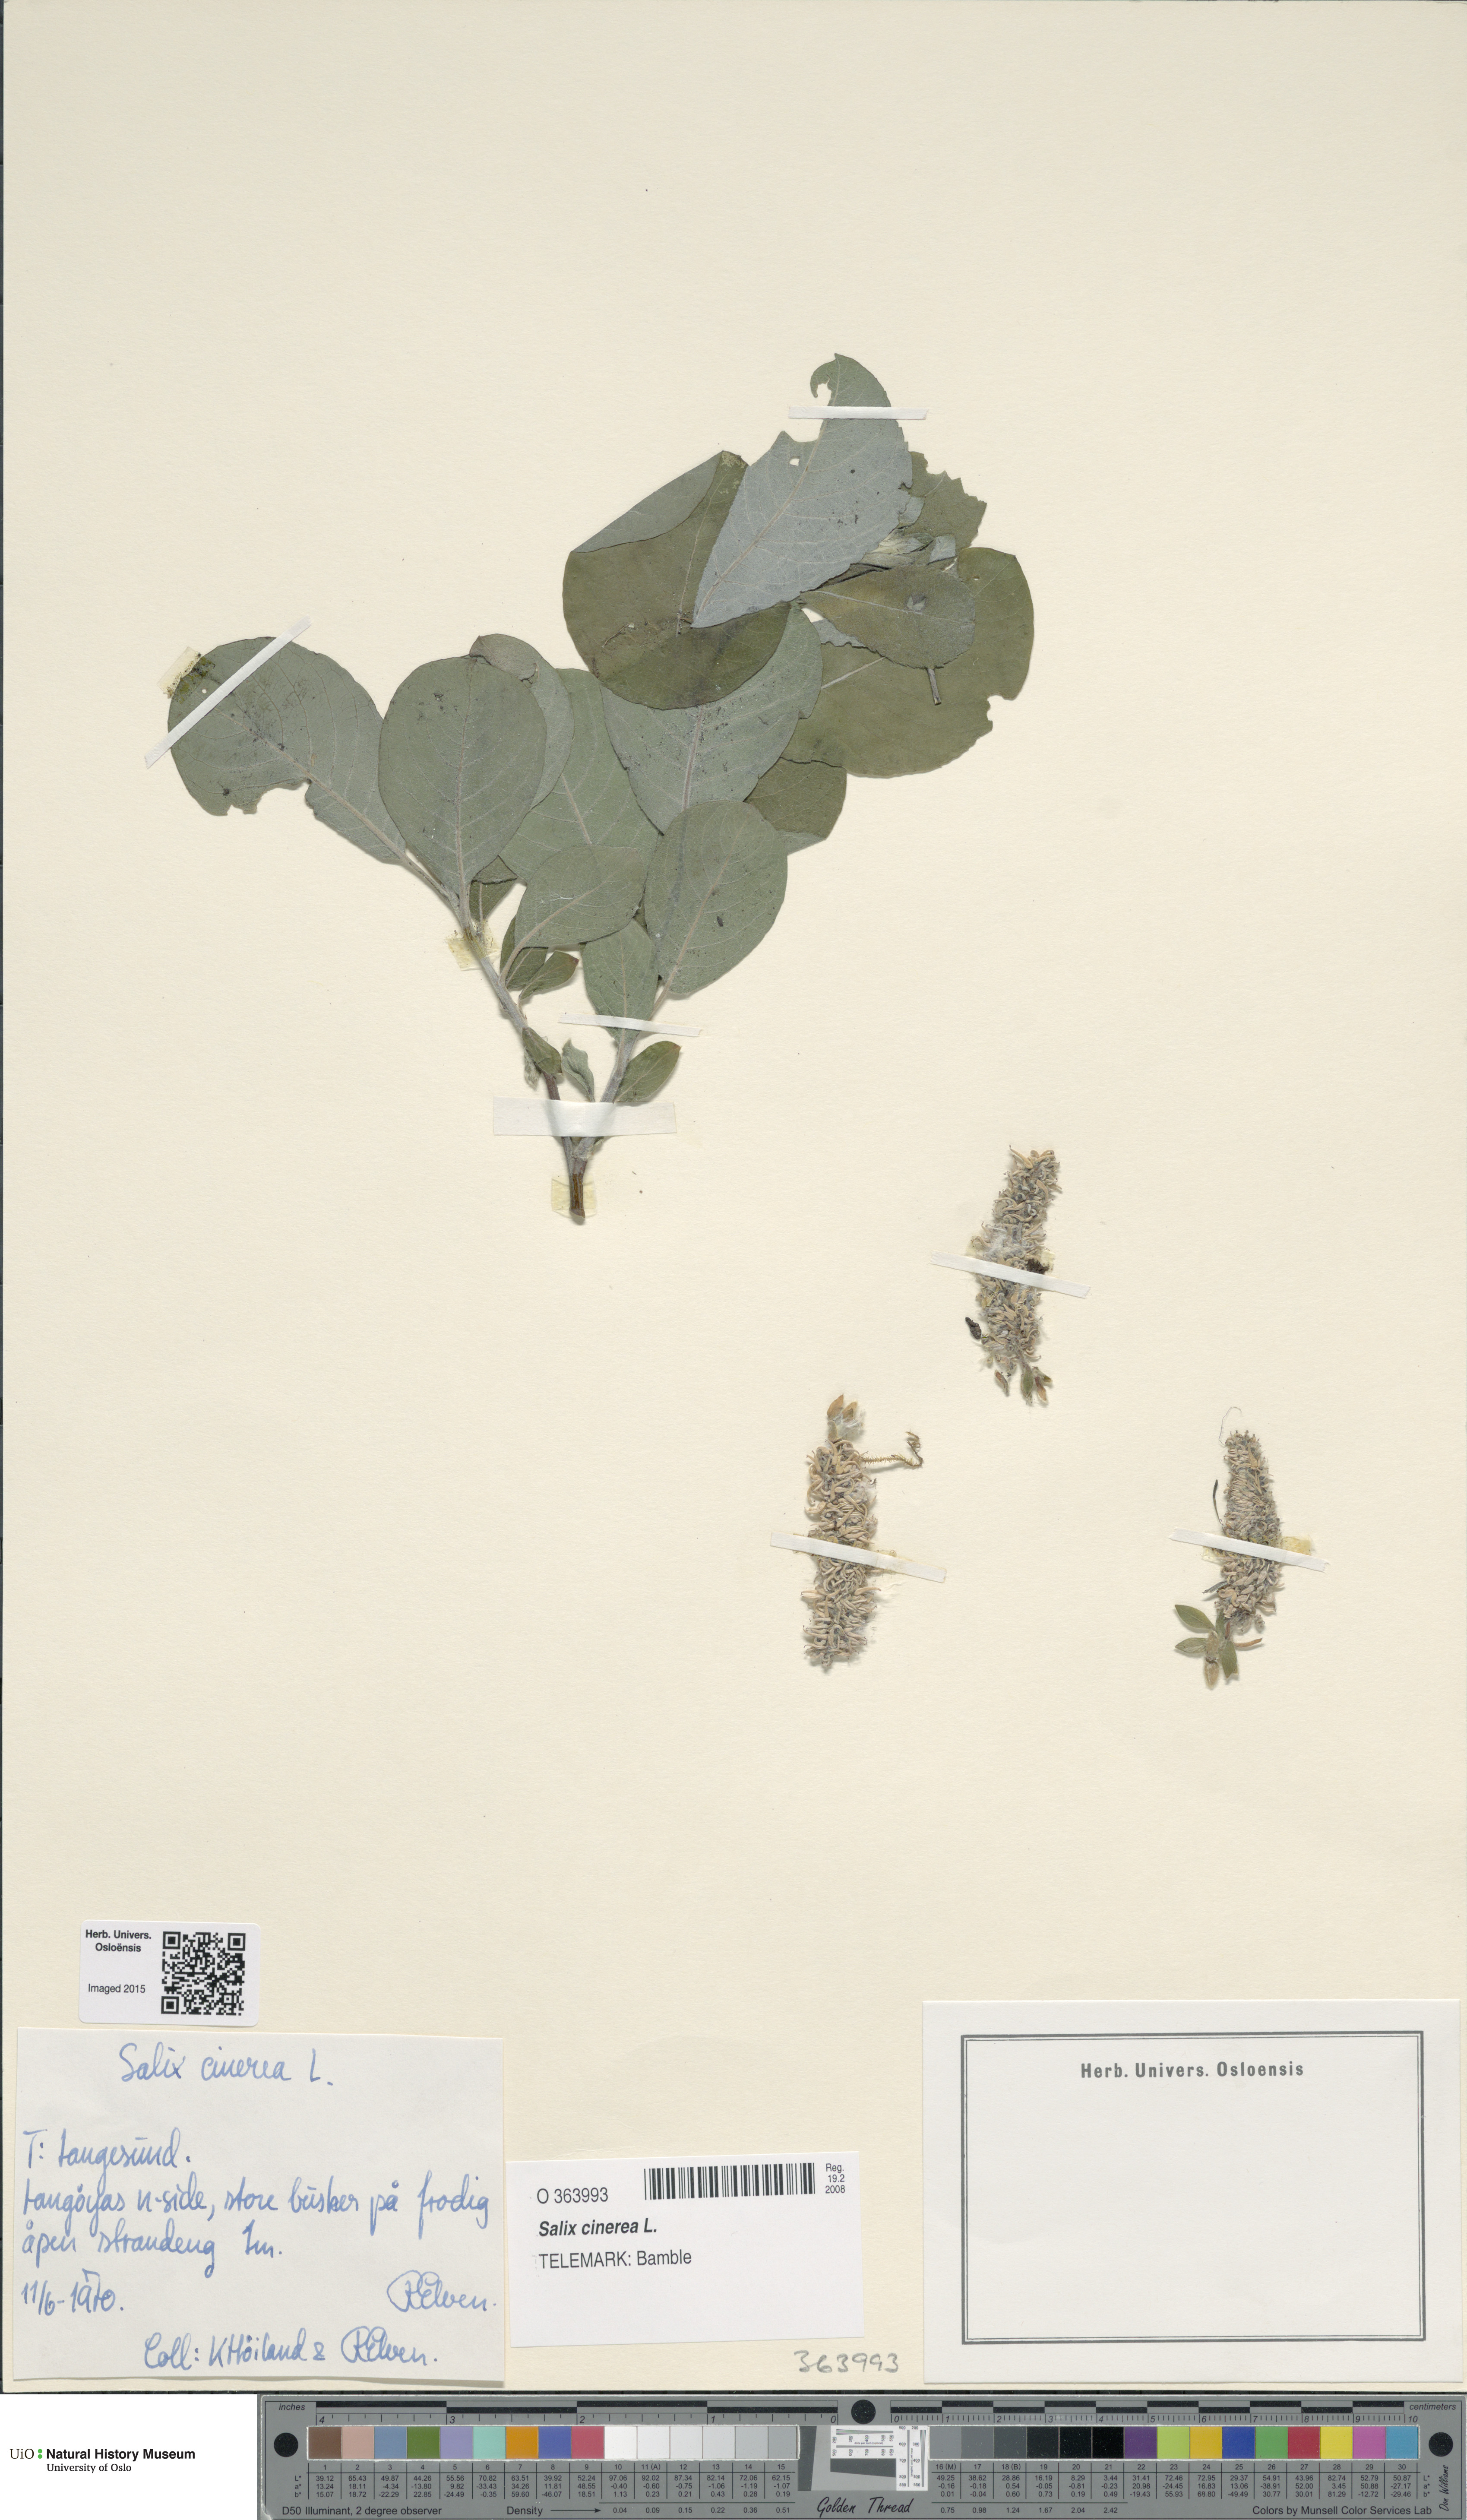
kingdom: Plantae
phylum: Tracheophyta
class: Magnoliopsida
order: Malpighiales
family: Salicaceae
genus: Salix
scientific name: Salix cinerea
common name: Common sallow
